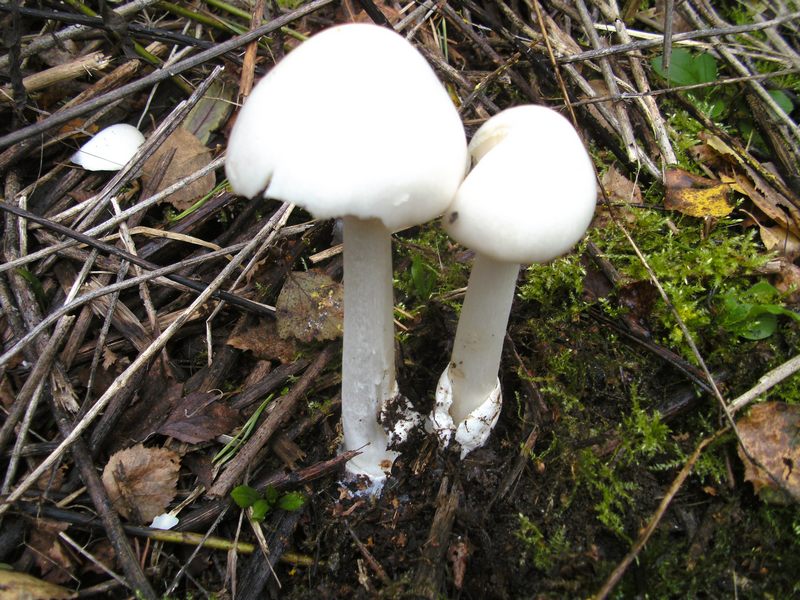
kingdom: Fungi
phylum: Basidiomycota
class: Agaricomycetes
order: Agaricales
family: Amanitaceae
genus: Amanita
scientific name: Amanita virosa
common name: snehvid fluesvamp
